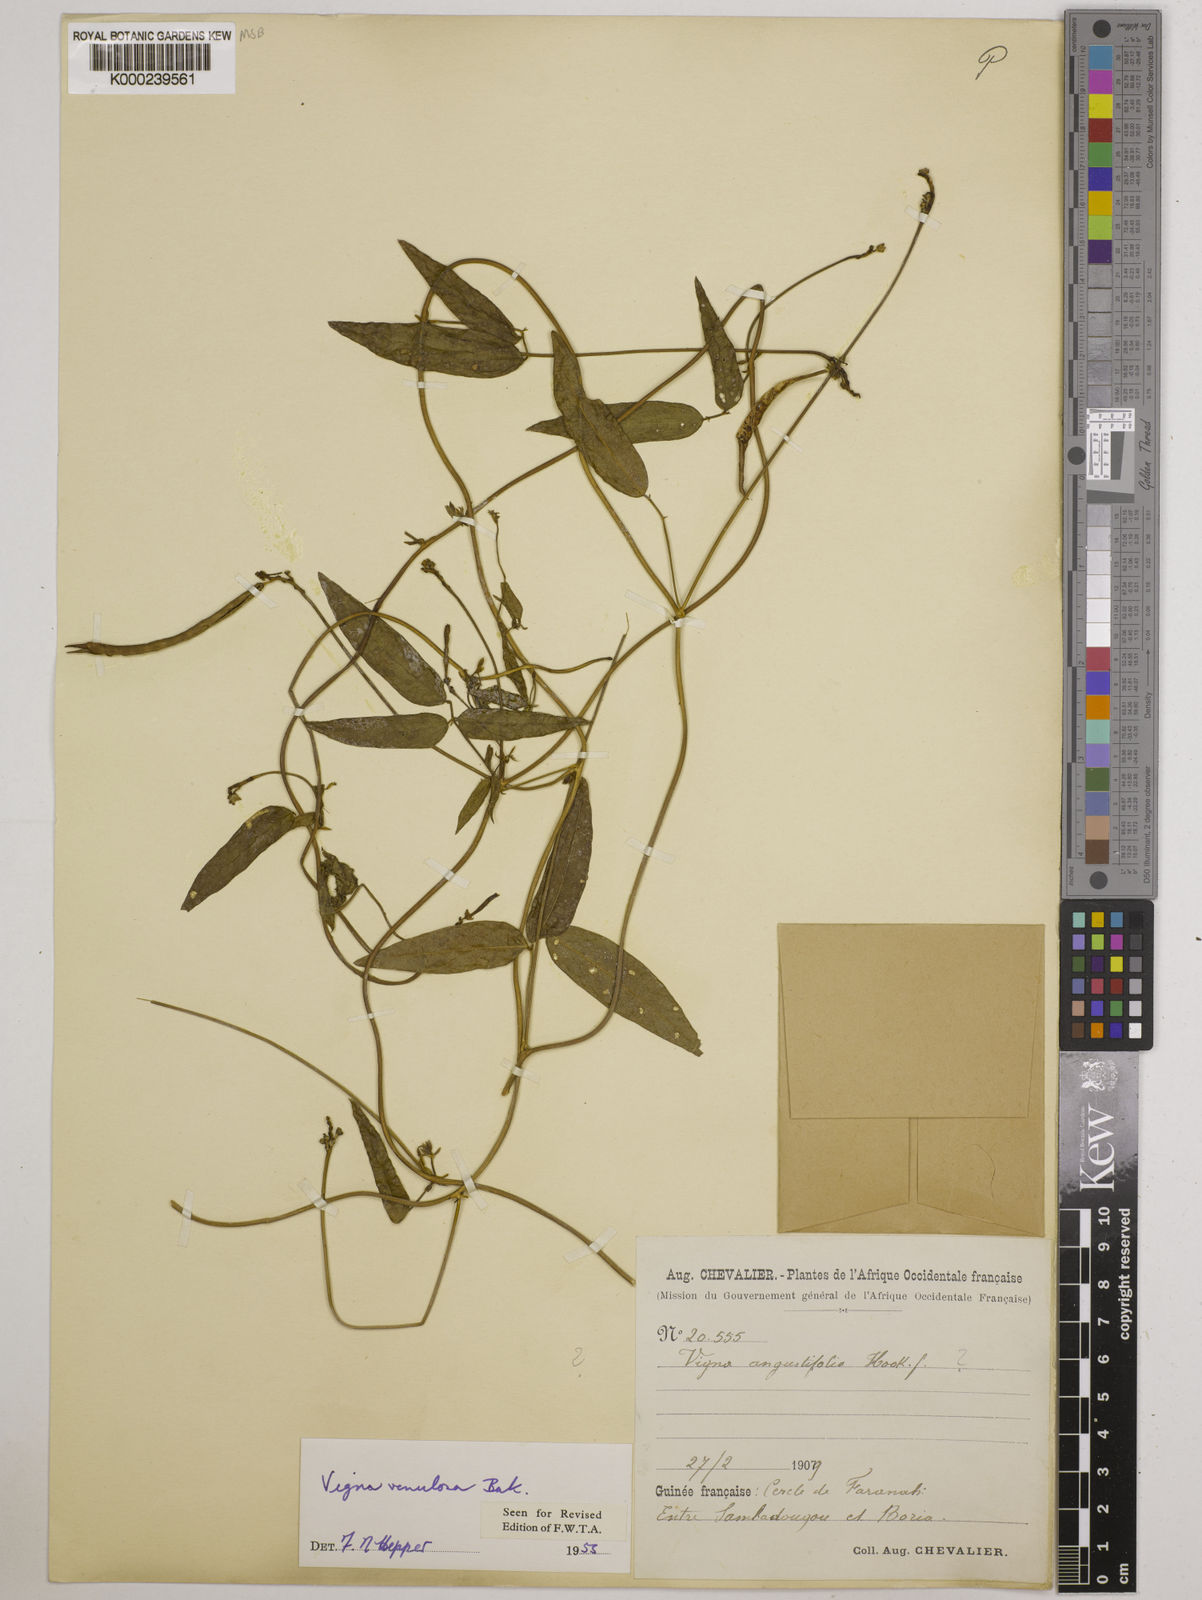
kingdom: Plantae
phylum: Tracheophyta
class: Magnoliopsida
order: Fabales
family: Fabaceae
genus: Vigna
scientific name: Vigna venulosa
